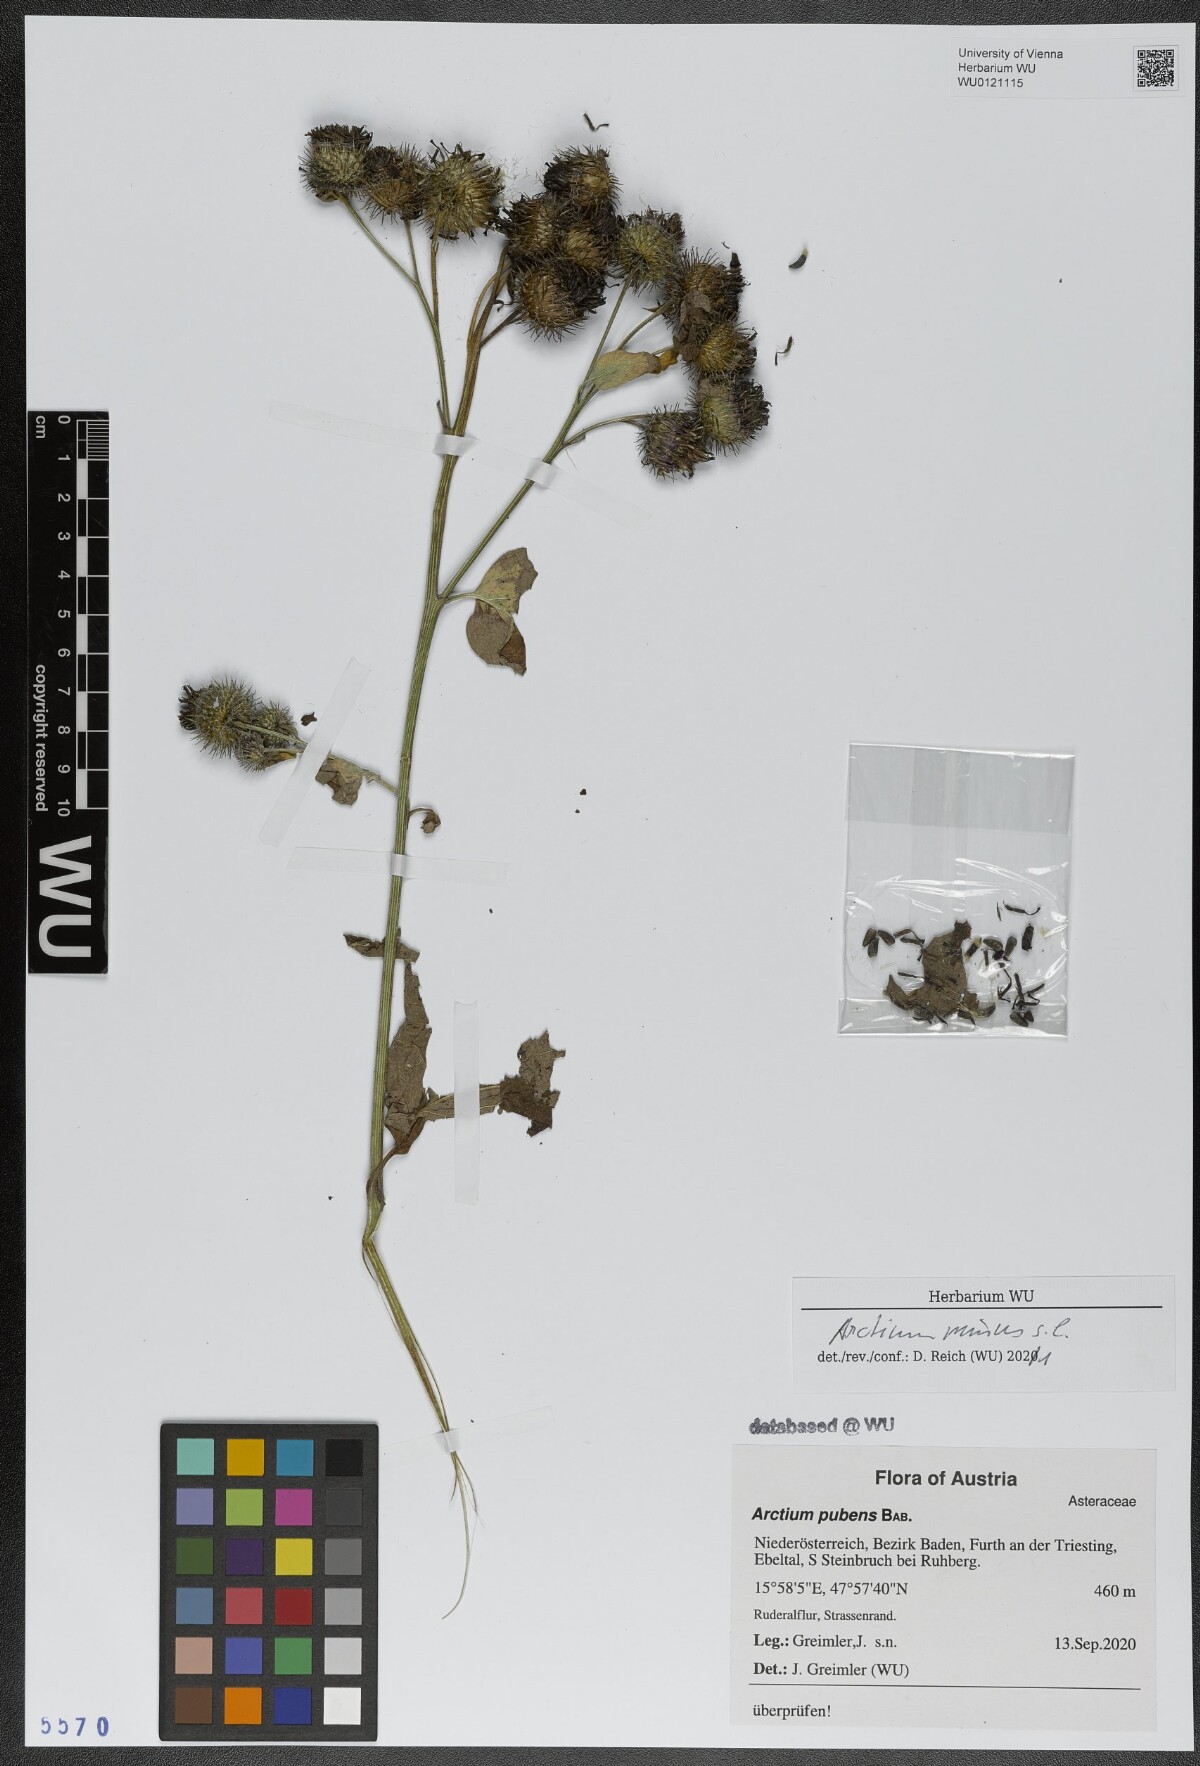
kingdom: Plantae
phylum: Tracheophyta
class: Magnoliopsida
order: Asterales
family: Asteraceae
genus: Arctium
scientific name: Arctium minus
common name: Lesser burdock
